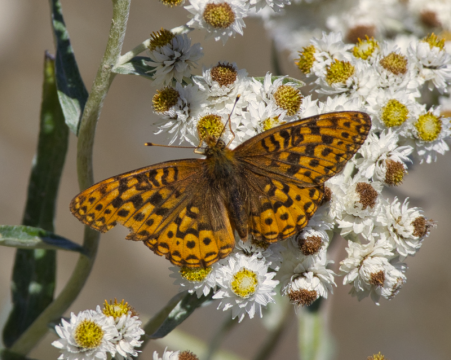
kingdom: Animalia
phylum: Arthropoda
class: Insecta
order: Lepidoptera
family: Nymphalidae
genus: Speyeria
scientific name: Speyeria hydaspe
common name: Hydaspe Fritillary
